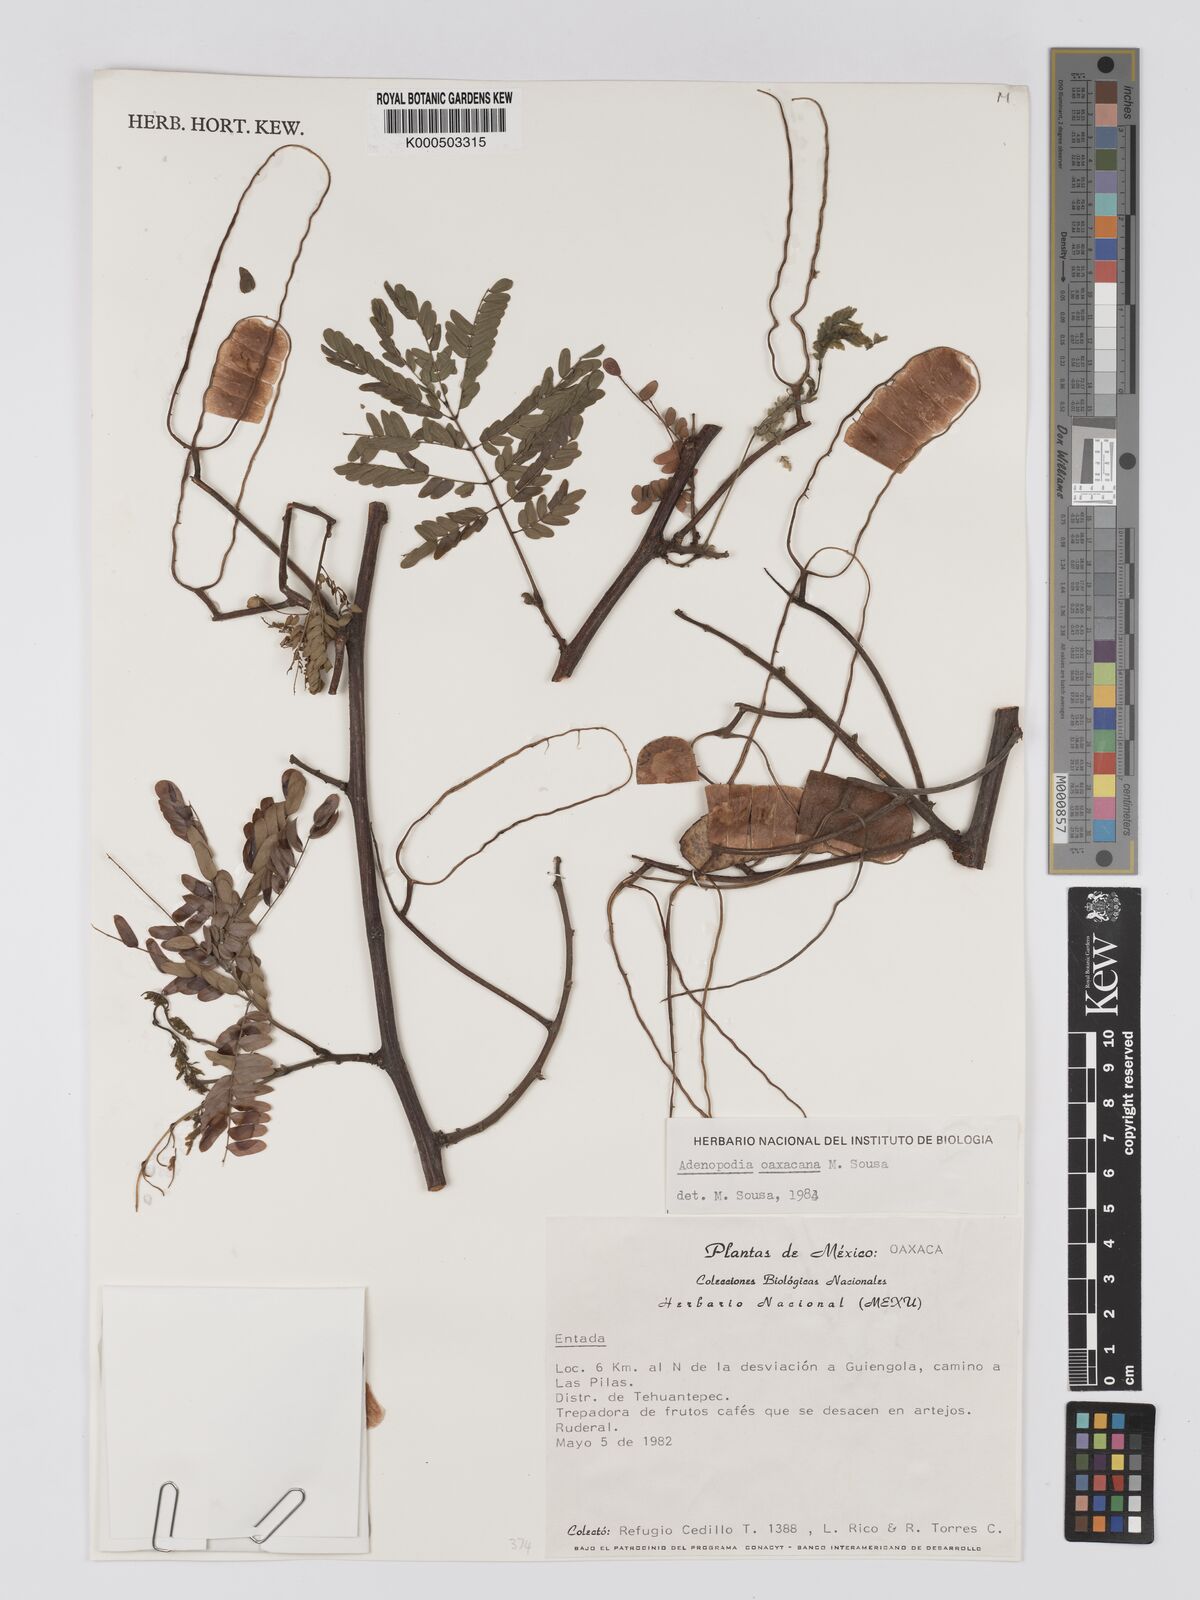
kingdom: Plantae
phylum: Tracheophyta
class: Magnoliopsida
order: Fabales
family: Fabaceae
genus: Adenopodia
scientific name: Adenopodia oaxacana
